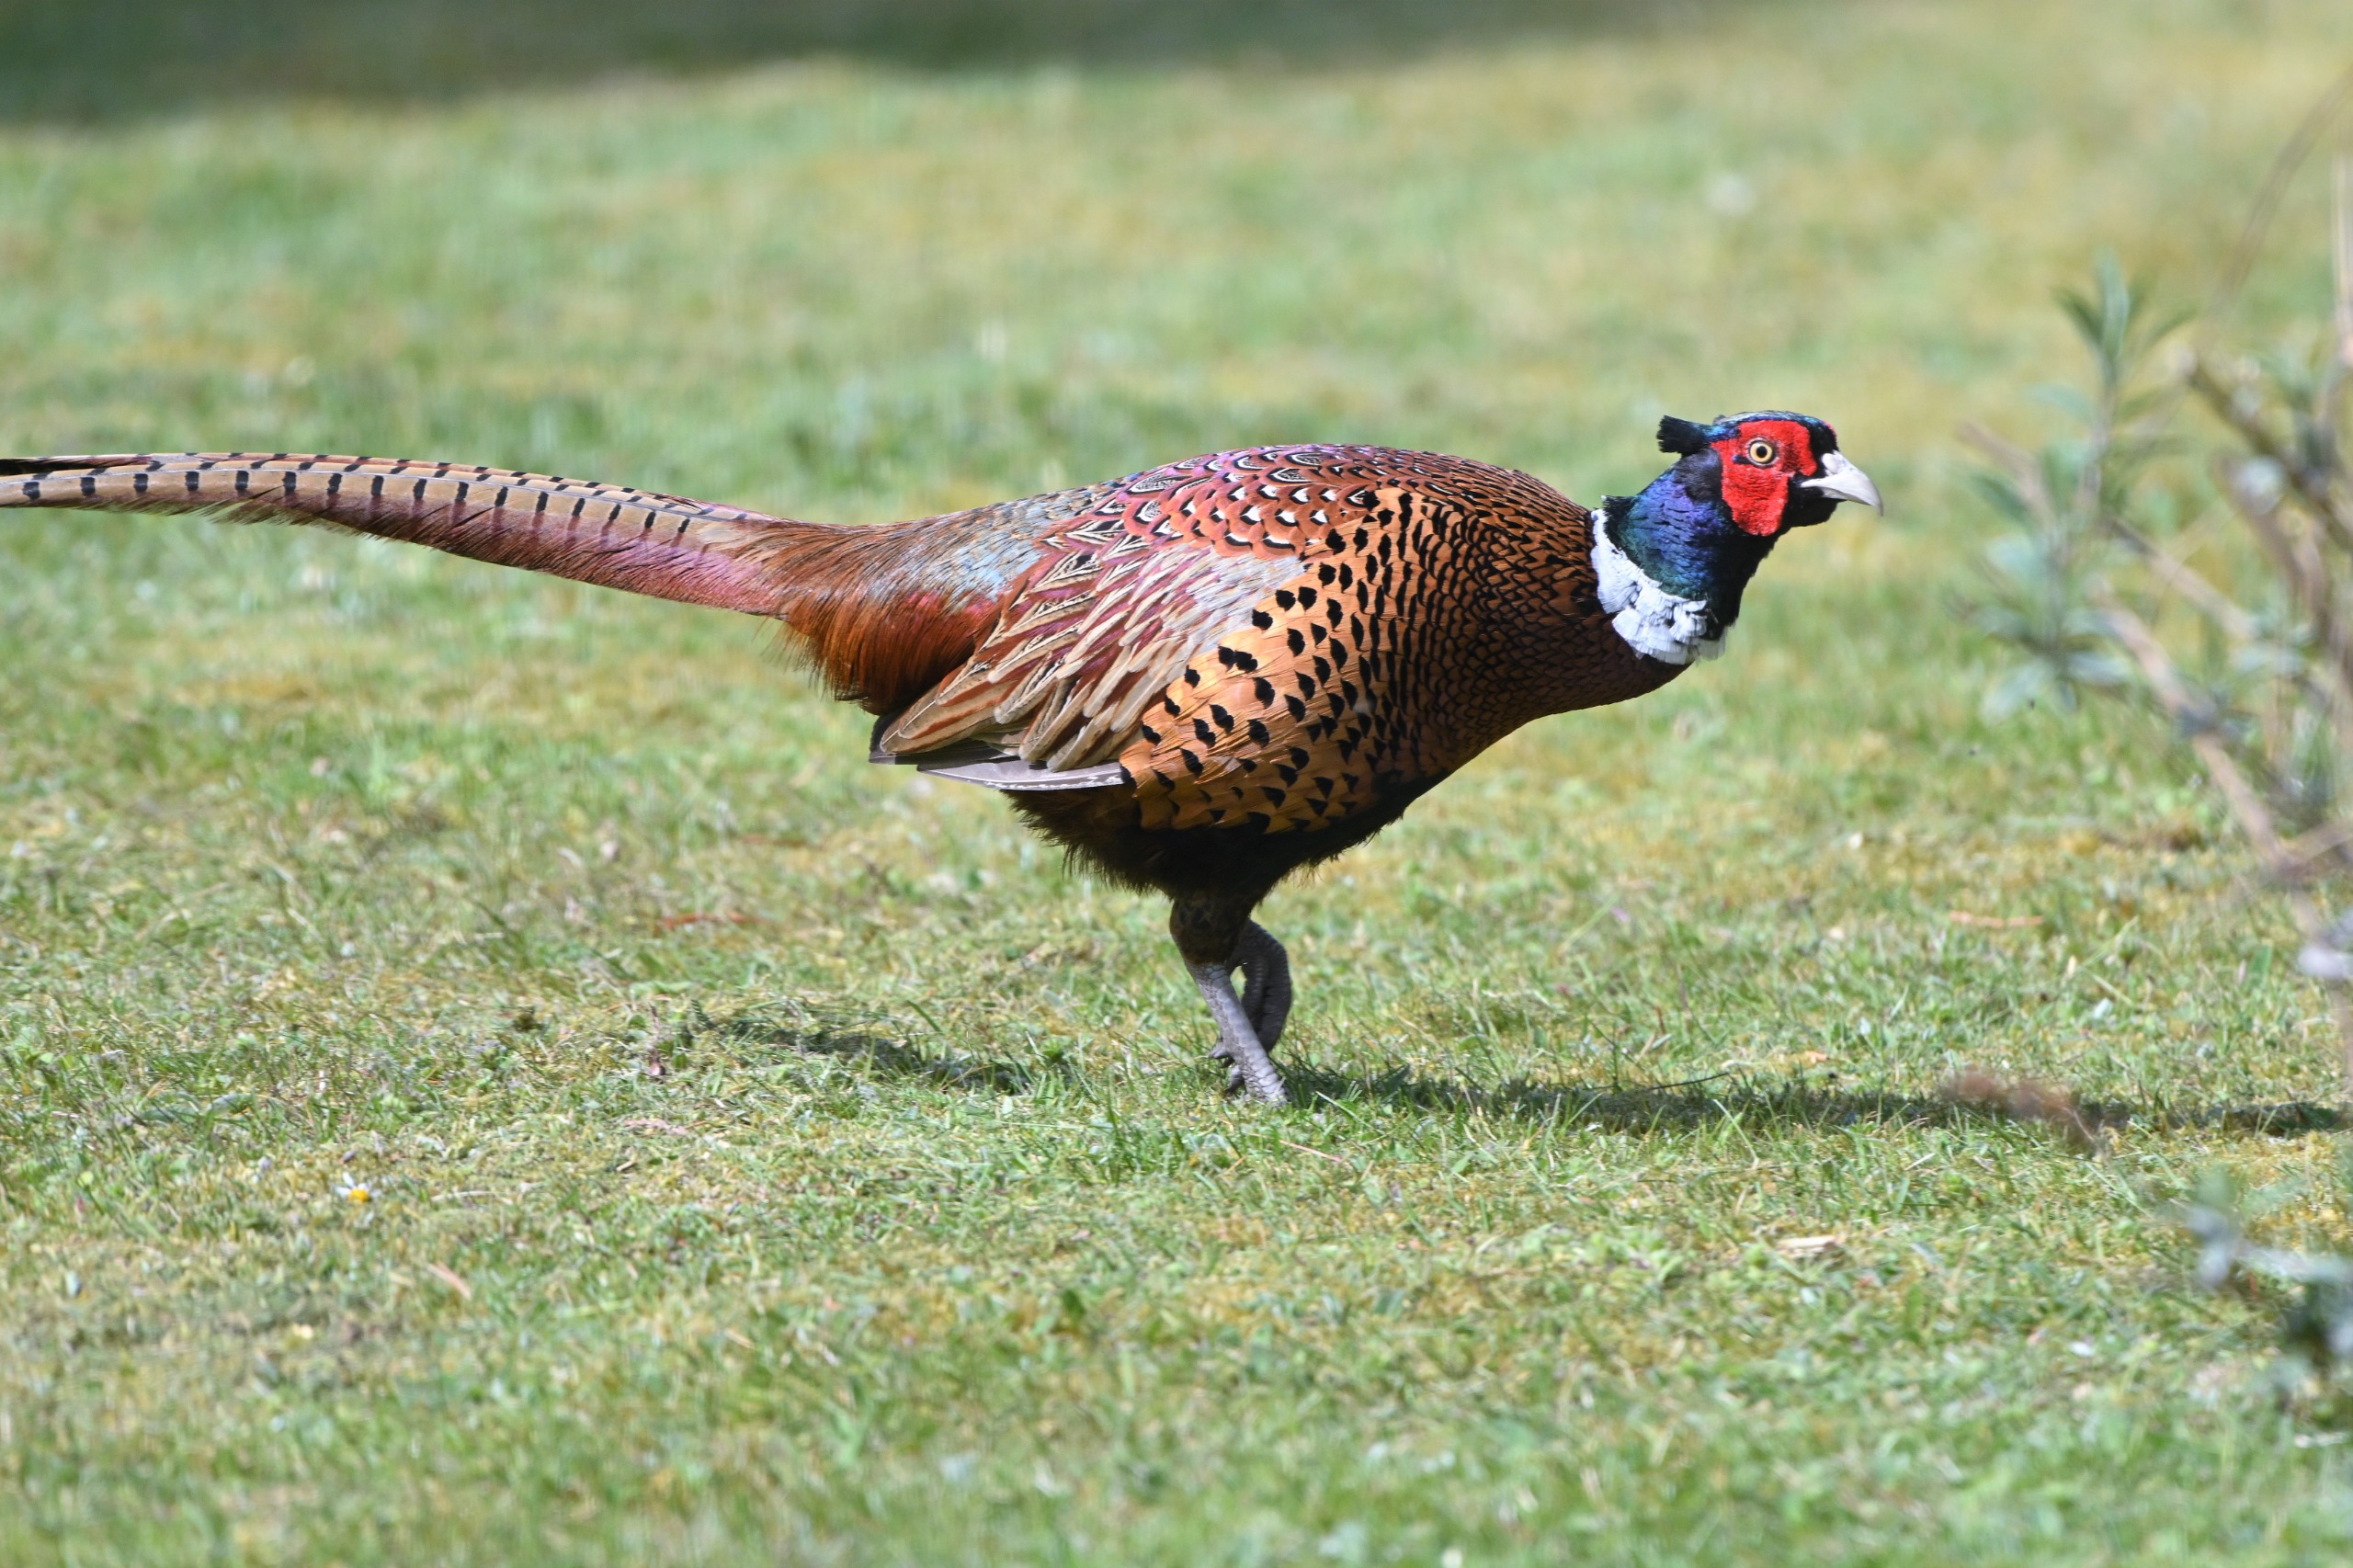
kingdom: Animalia
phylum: Chordata
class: Aves
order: Galliformes
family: Phasianidae
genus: Phasianus
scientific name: Phasianus colchicus
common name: Fasan
